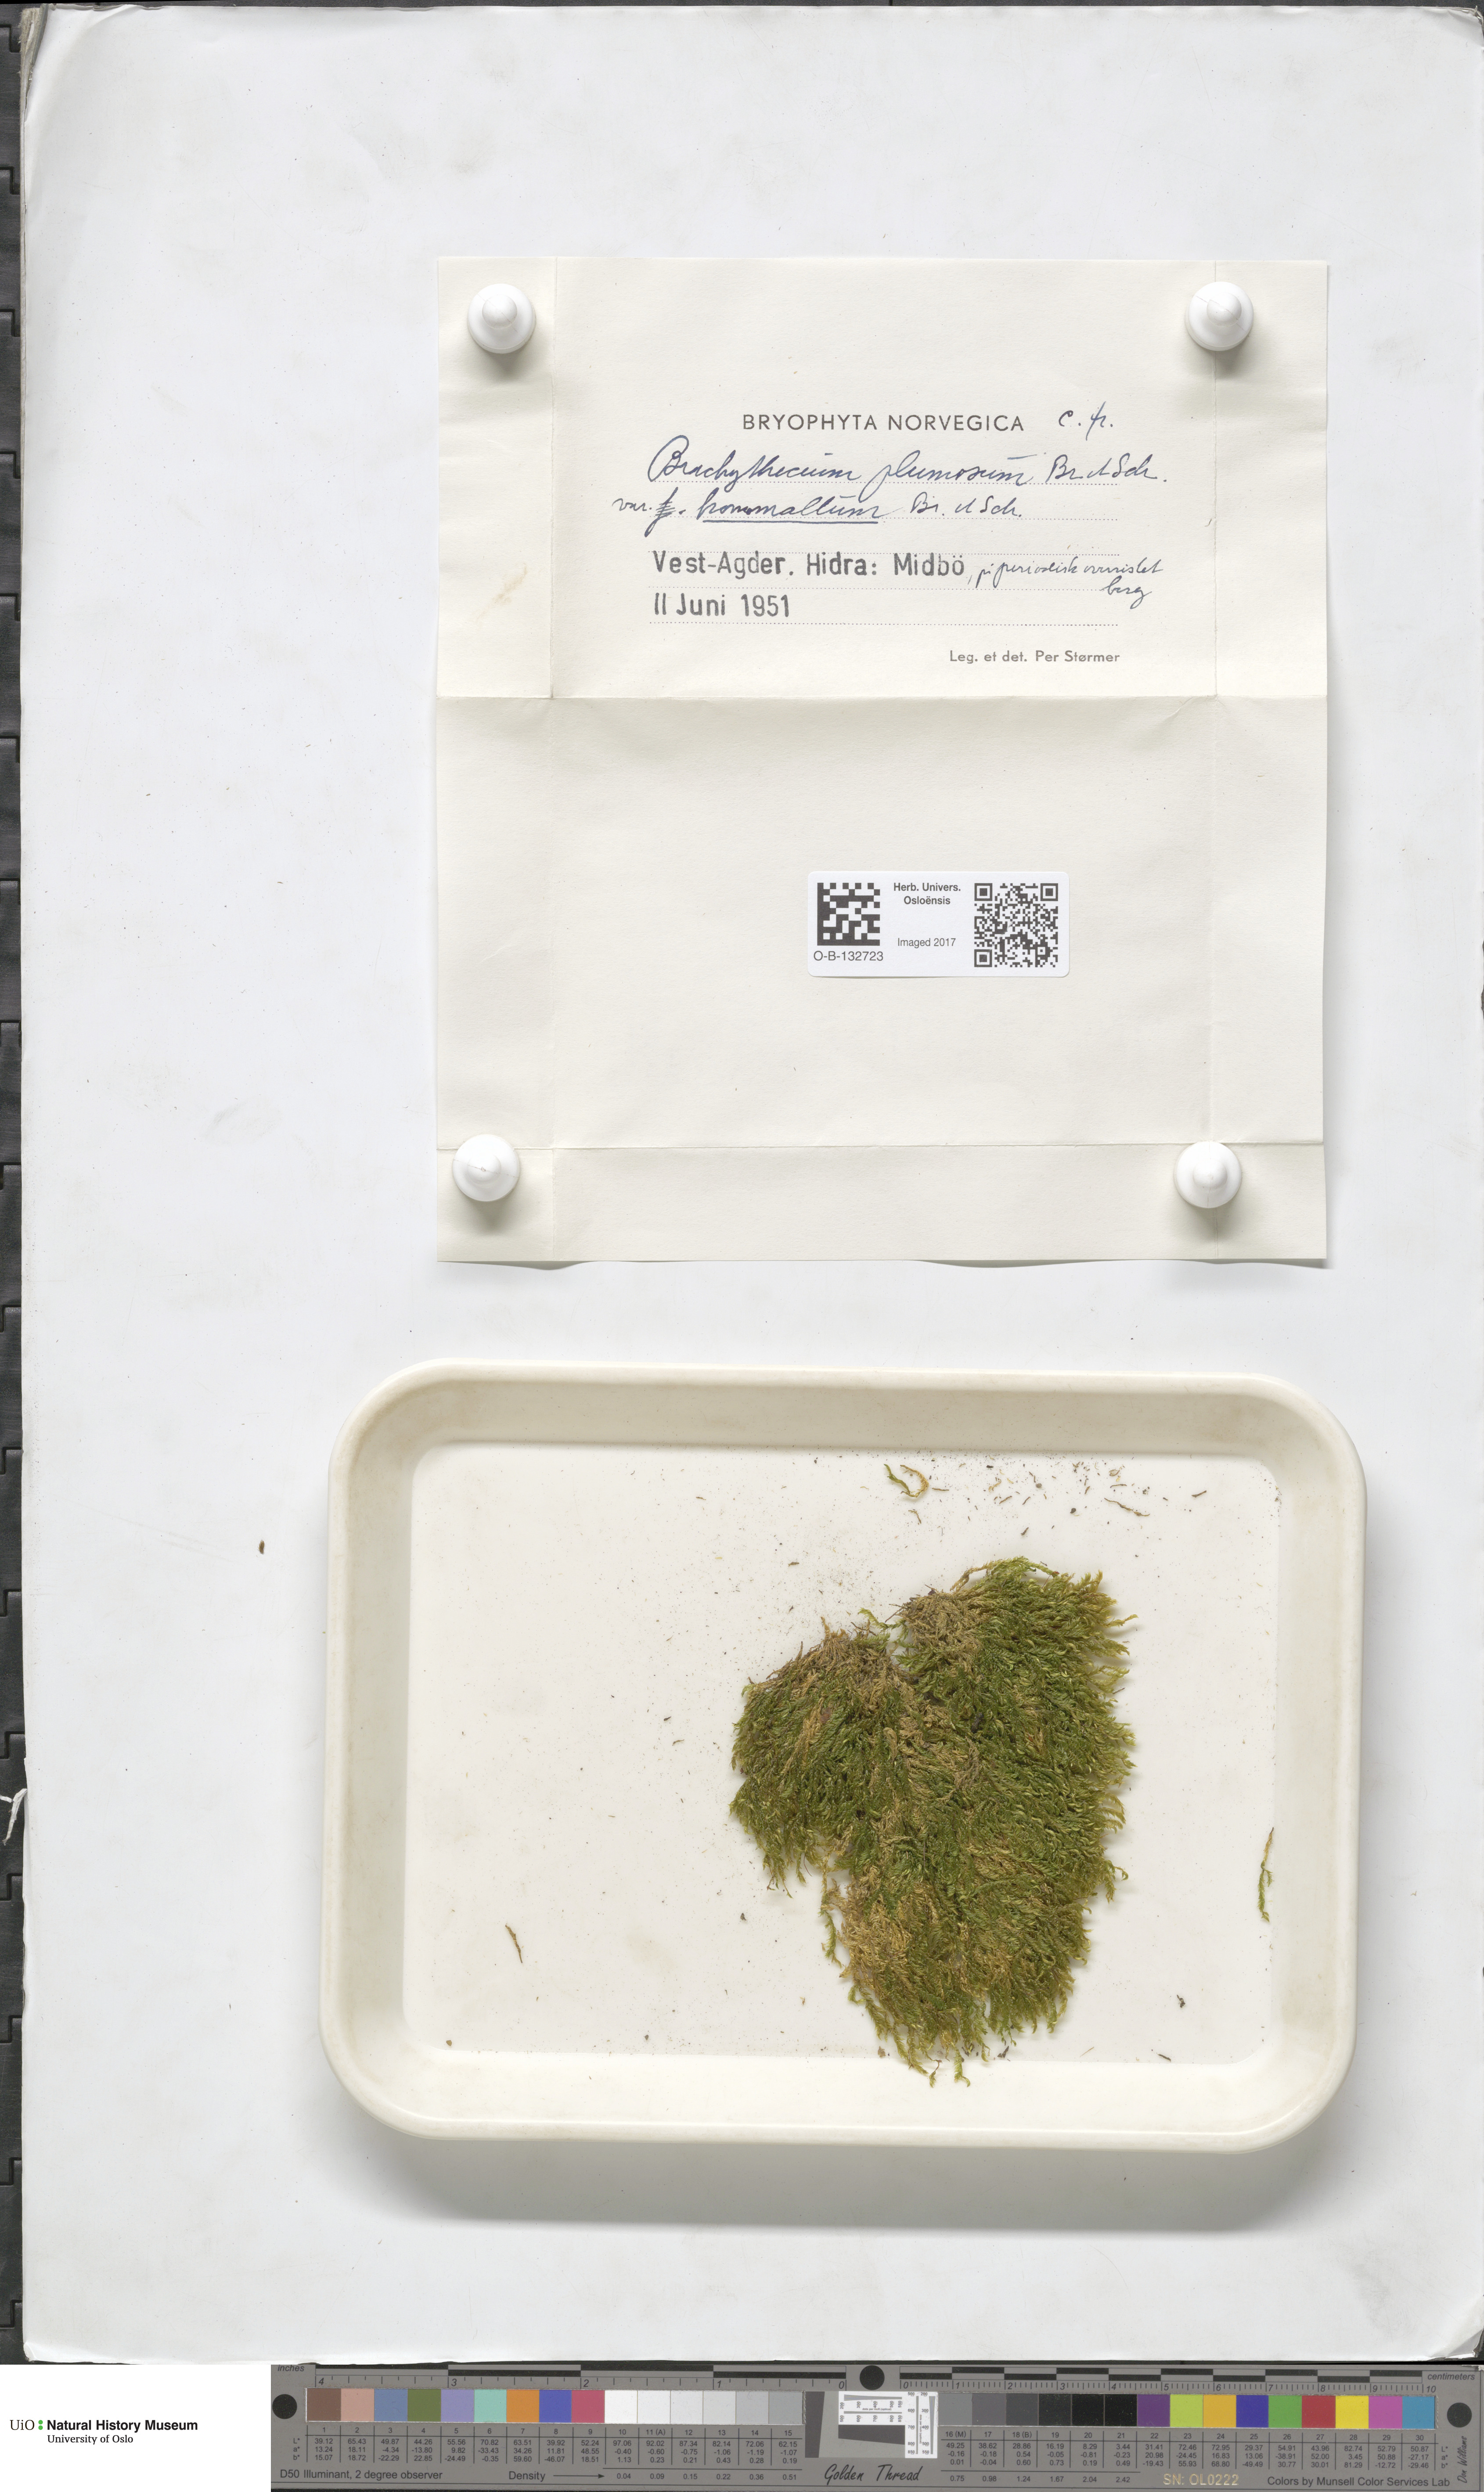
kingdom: Plantae
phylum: Bryophyta
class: Bryopsida
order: Hypnales
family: Brachytheciaceae
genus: Sciuro-hypnum
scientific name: Sciuro-hypnum plumosum
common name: Rusty feather-moss
